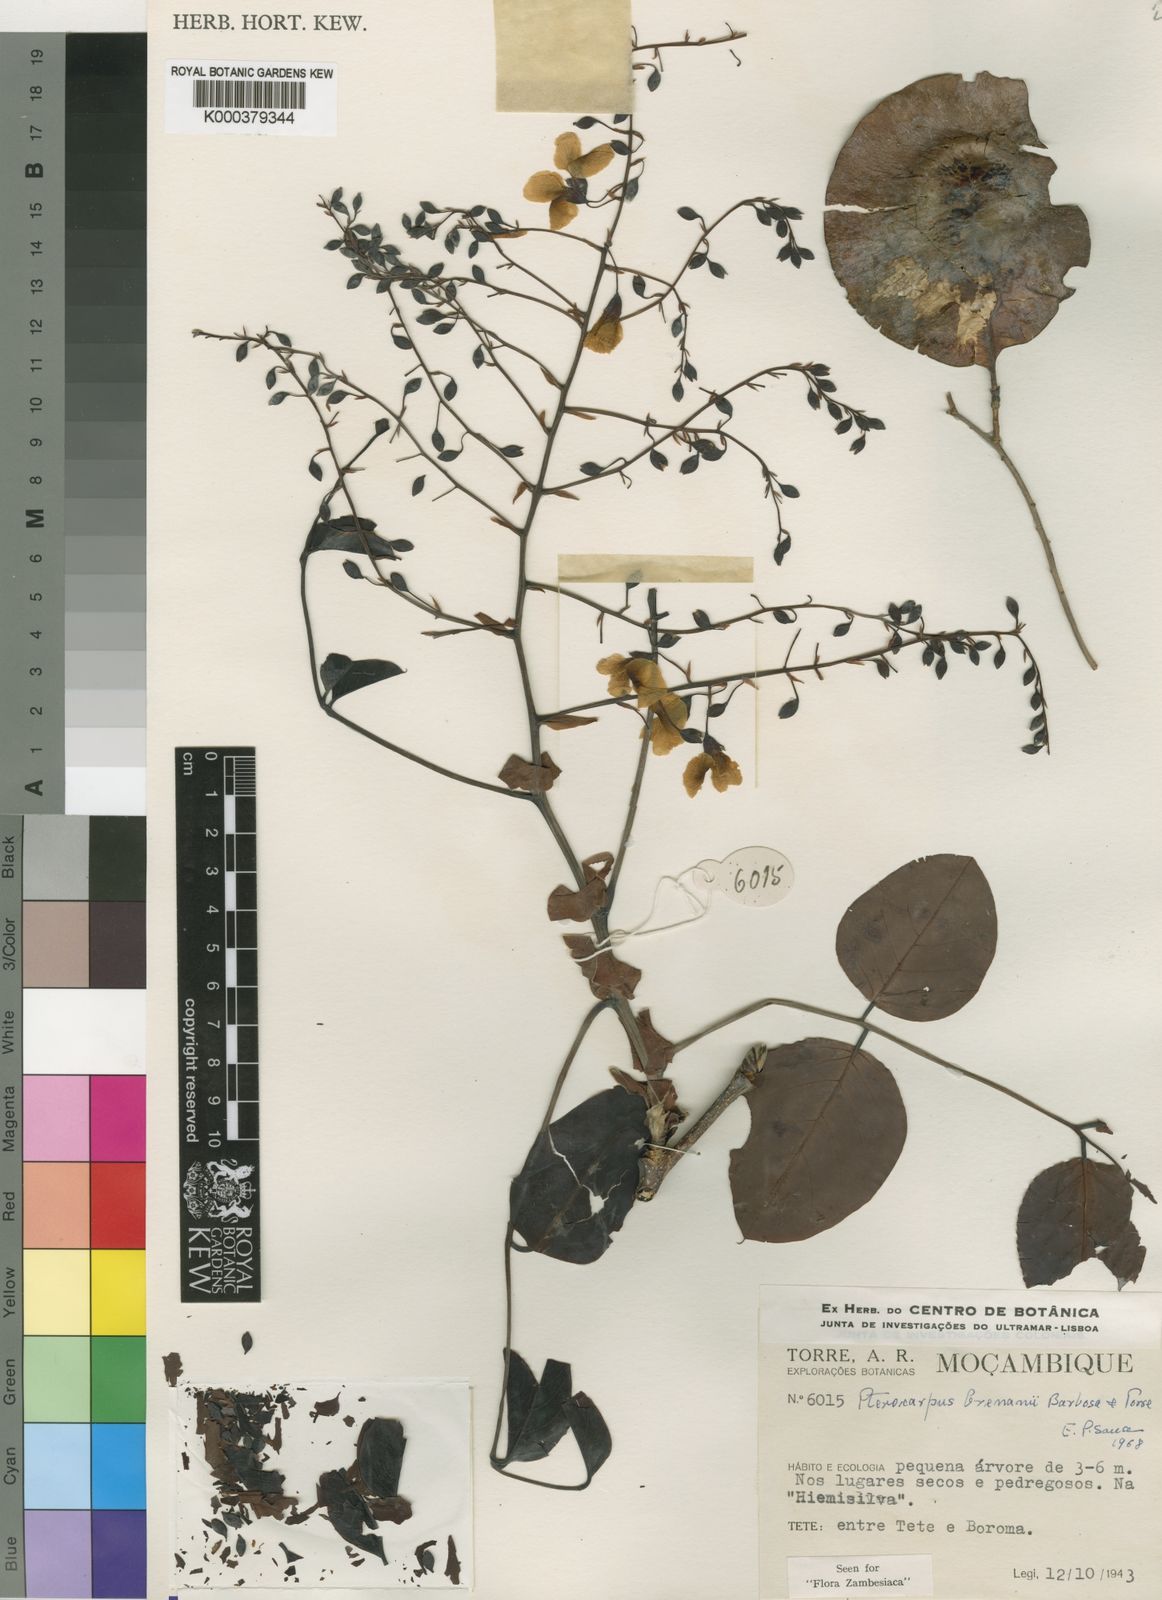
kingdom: Plantae
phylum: Tracheophyta
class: Magnoliopsida
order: Fabales
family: Fabaceae
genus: Pterocarpus
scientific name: Pterocarpus brenanii
